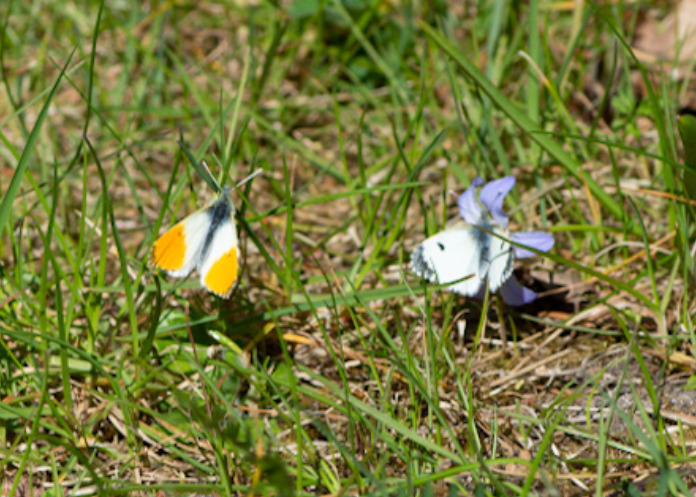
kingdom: Animalia
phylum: Arthropoda
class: Insecta
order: Lepidoptera
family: Pieridae
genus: Anthocharis
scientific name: Anthocharis cardamines
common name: Aurora
